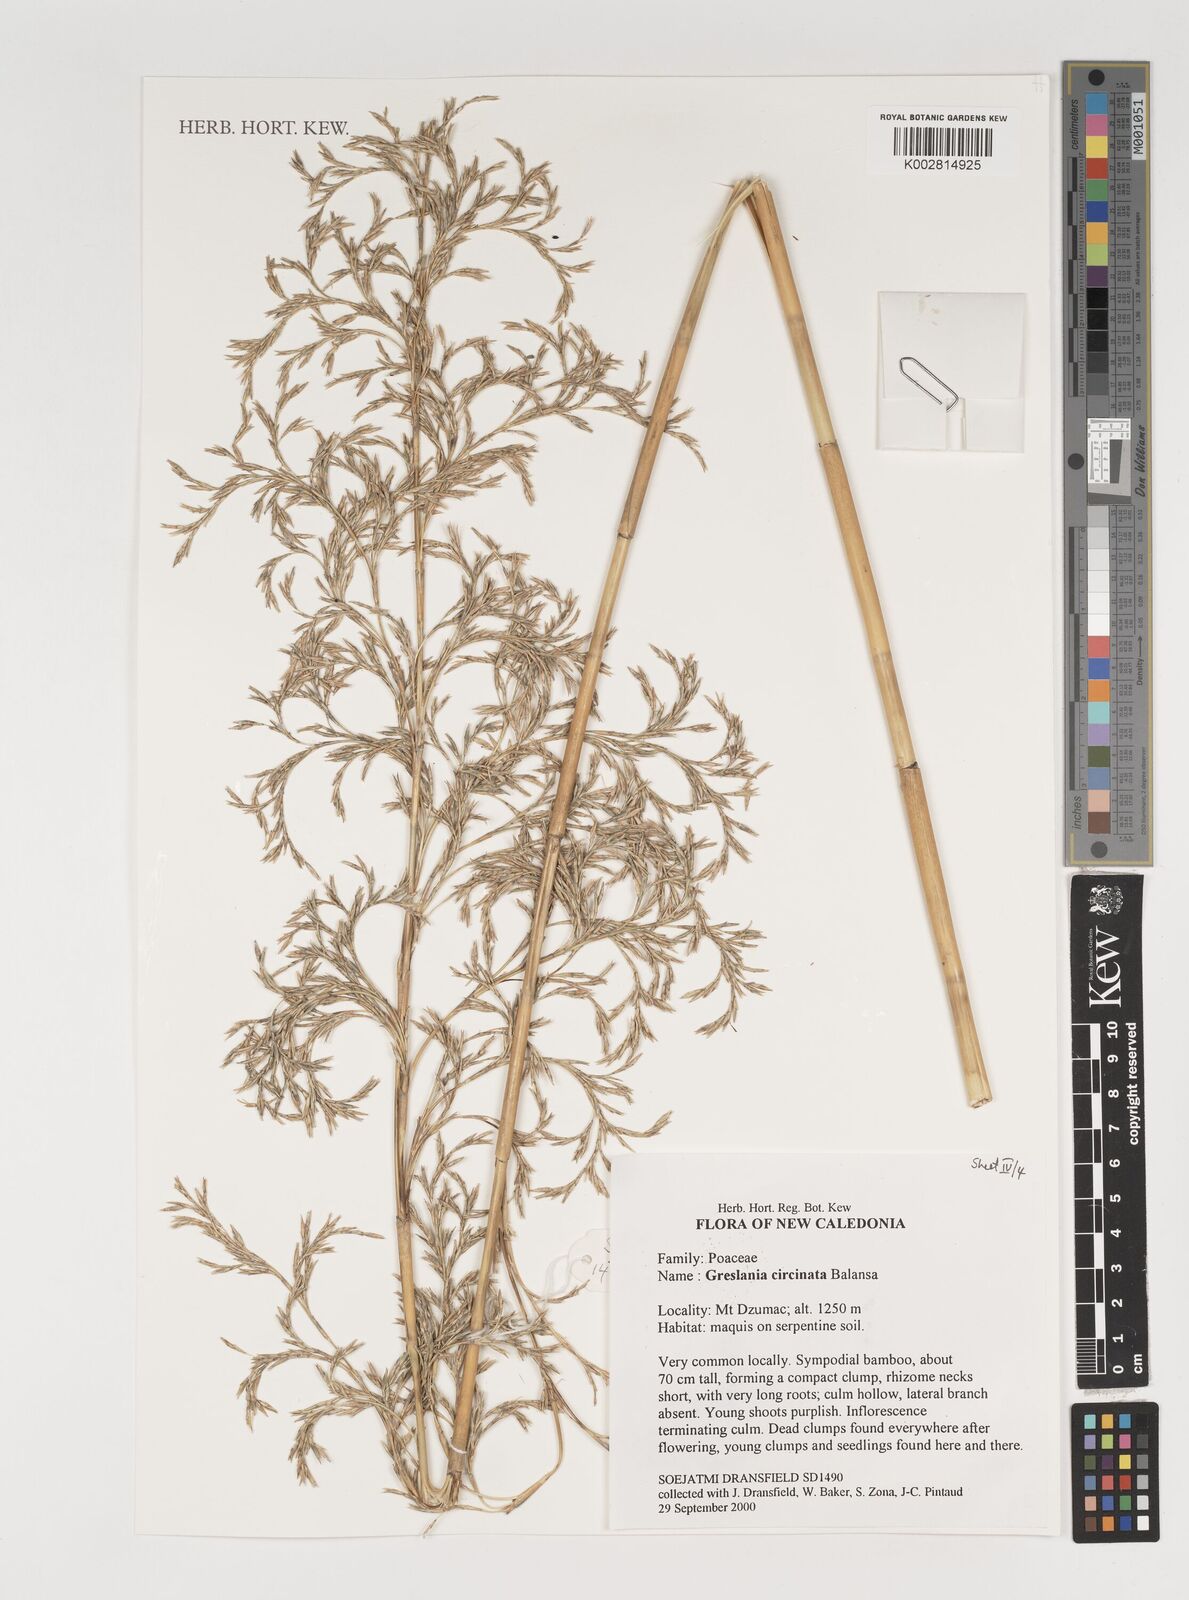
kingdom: Plantae
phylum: Tracheophyta
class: Liliopsida
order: Poales
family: Poaceae
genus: Greslania
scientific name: Greslania circinata
